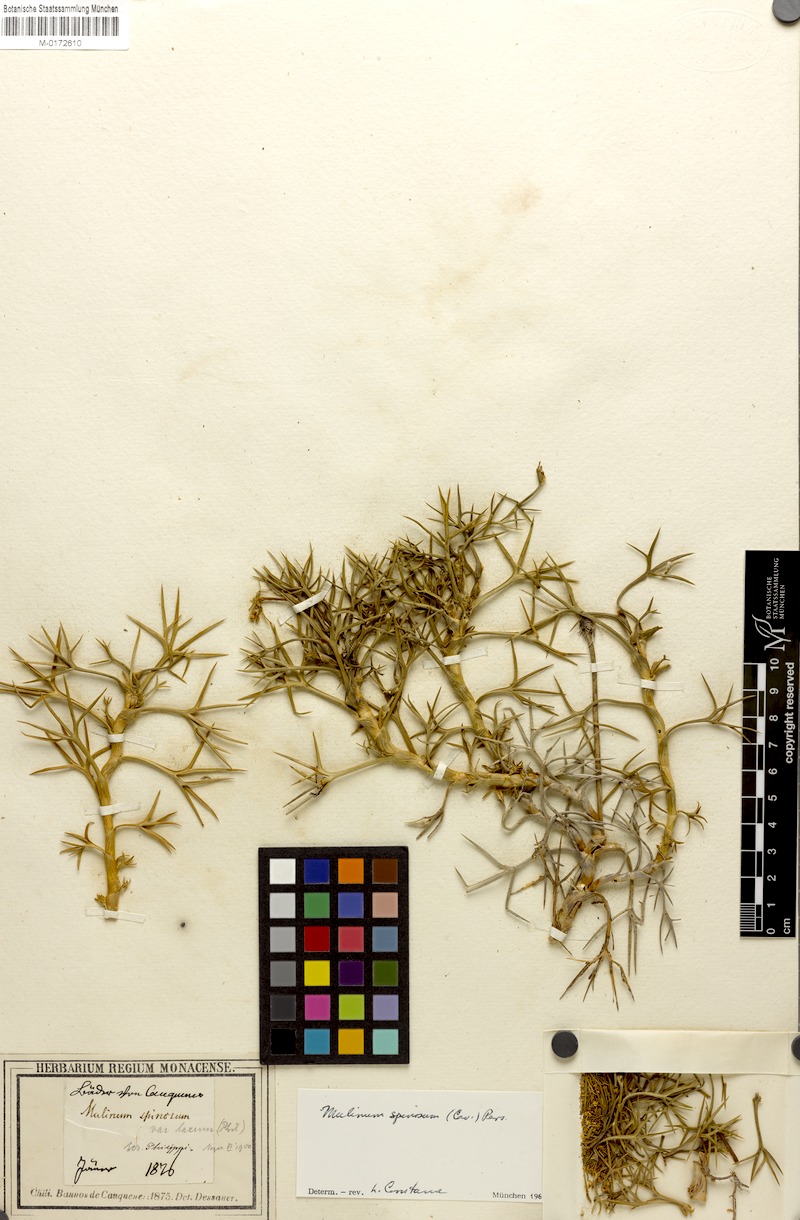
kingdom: Plantae
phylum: Tracheophyta
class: Magnoliopsida
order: Apiales
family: Apiaceae
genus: Azorella
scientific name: Azorella prolifera
